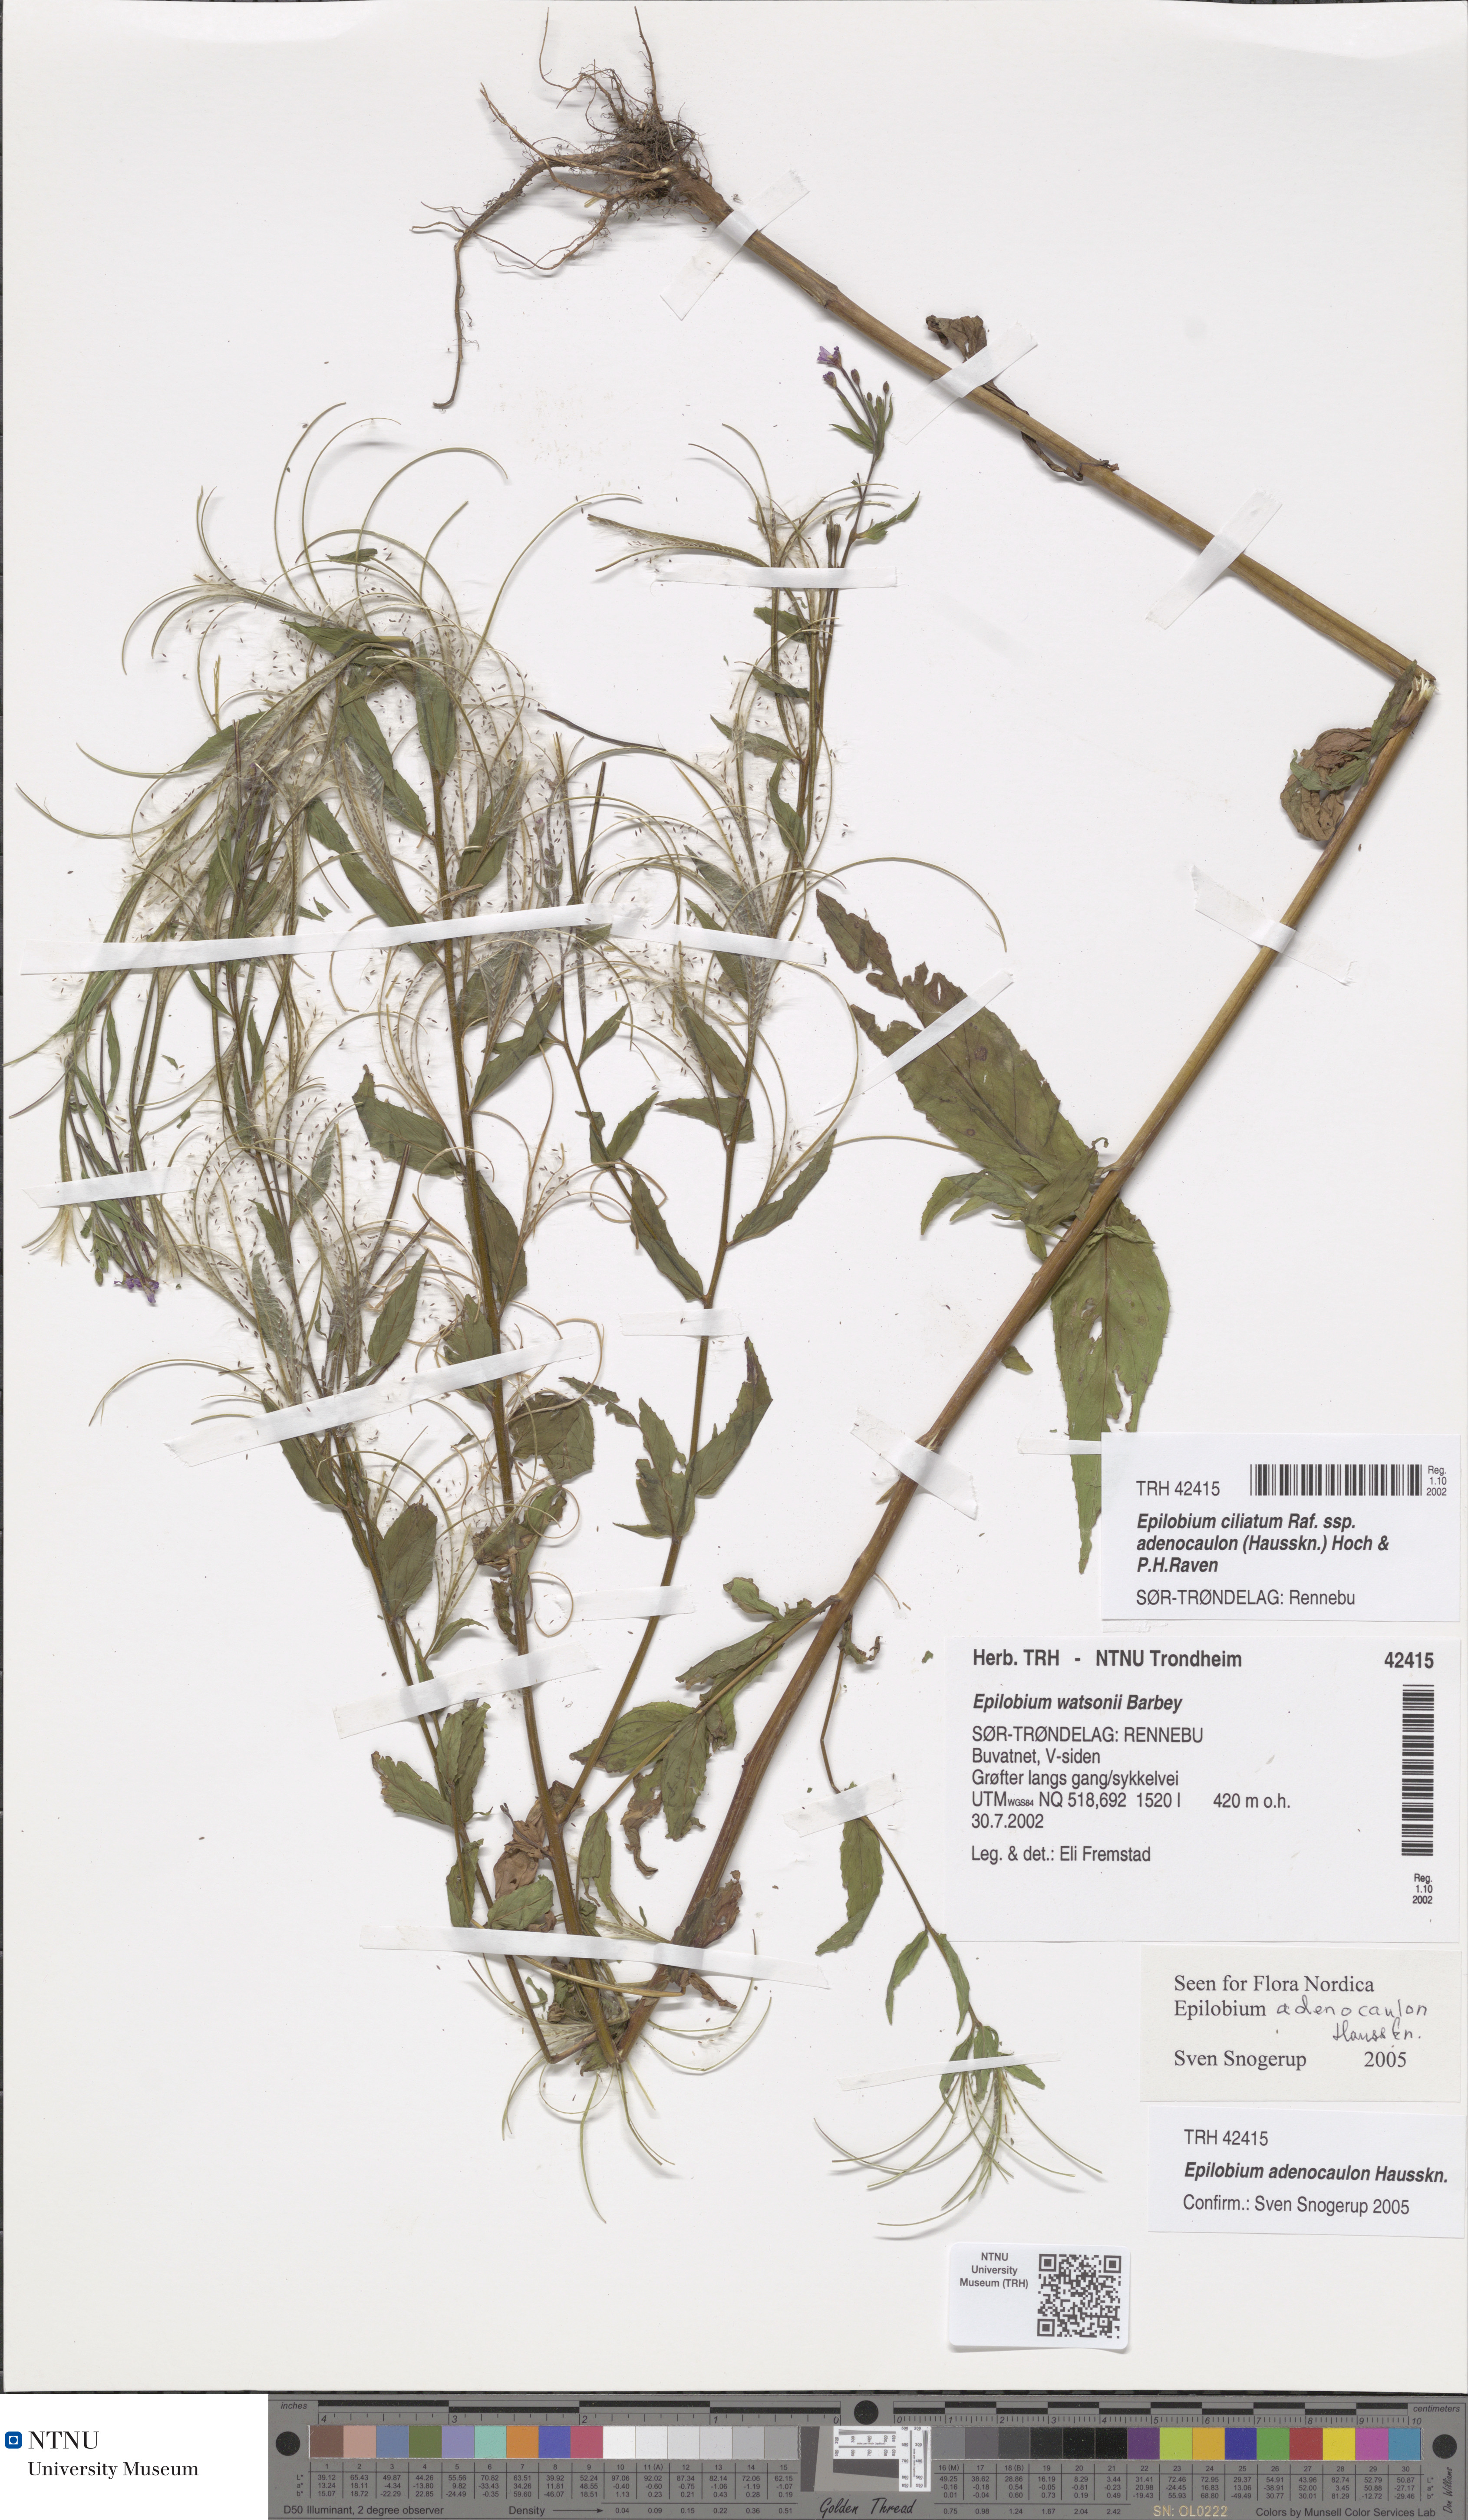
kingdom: Plantae
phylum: Tracheophyta
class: Magnoliopsida
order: Myrtales
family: Onagraceae
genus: Epilobium
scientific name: Epilobium ciliatum
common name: American willowherb
